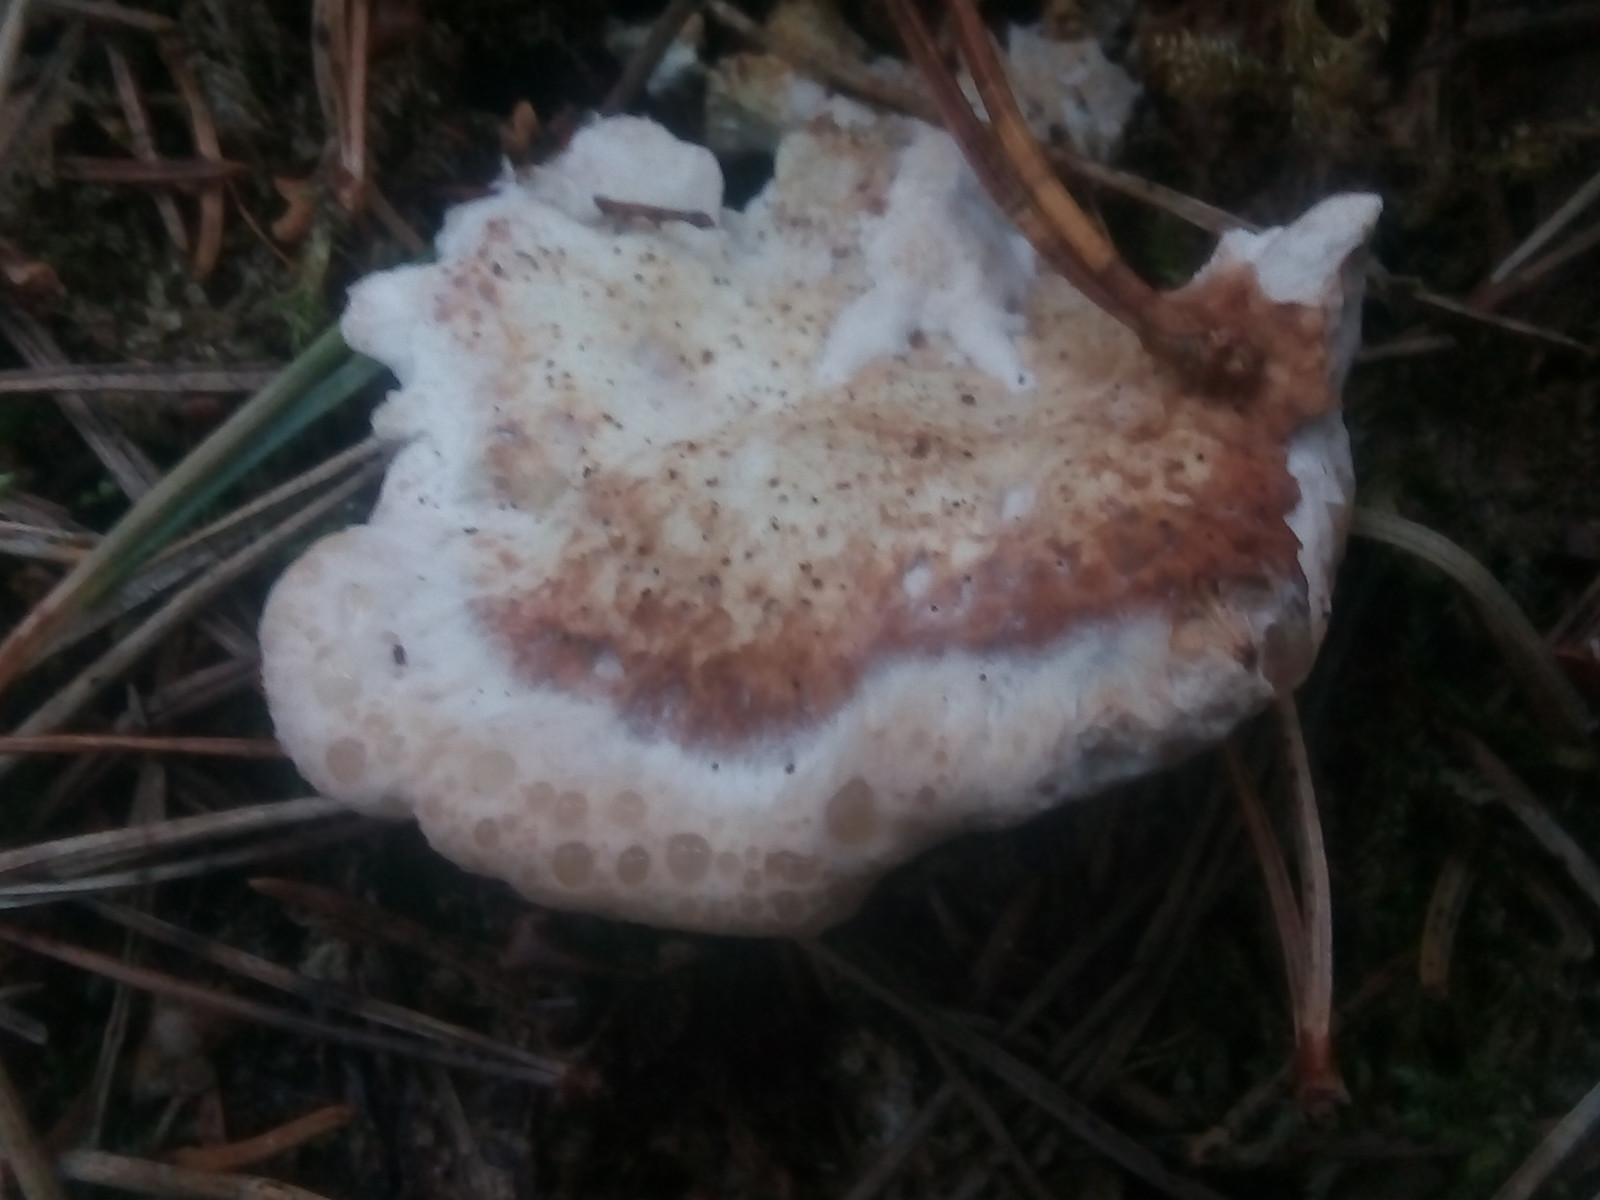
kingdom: Fungi
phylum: Basidiomycota
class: Agaricomycetes
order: Polyporales
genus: Calcipostia
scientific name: Calcipostia guttulata
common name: dråbe-kødporesvamp
